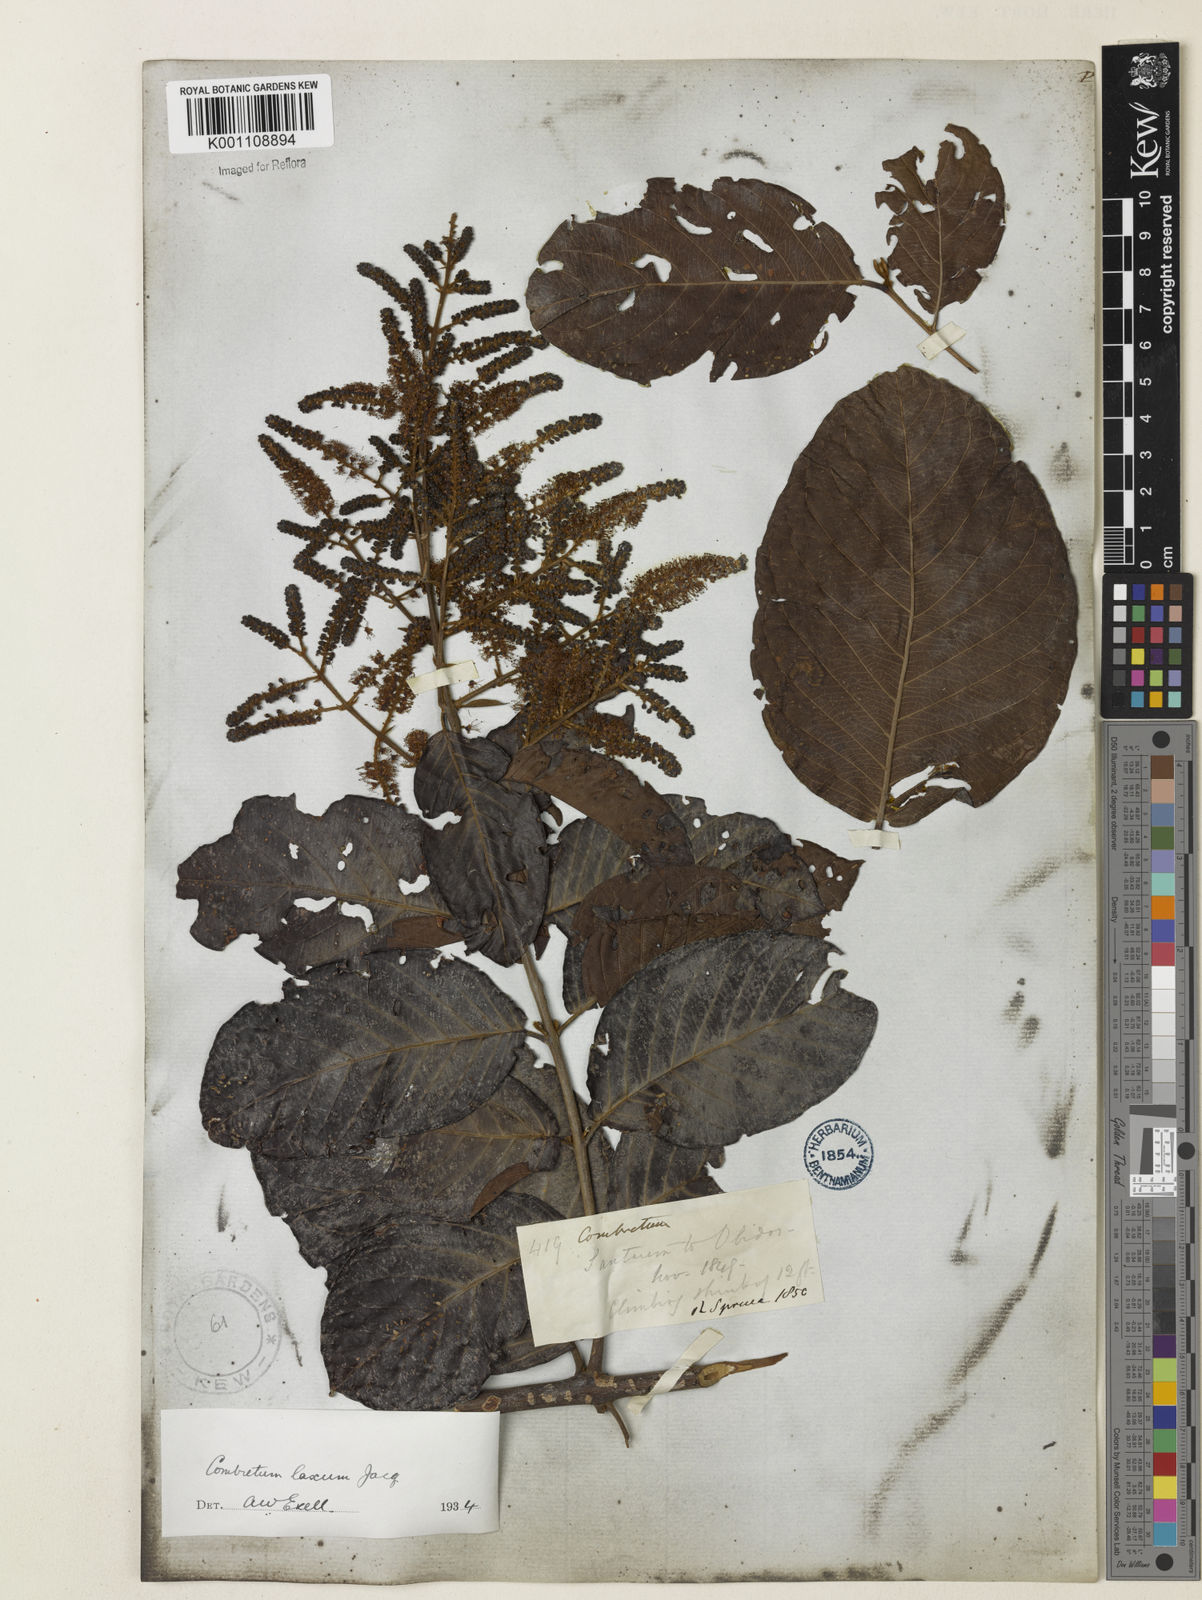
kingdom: Plantae
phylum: Tracheophyta
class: Magnoliopsida
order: Myrtales
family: Combretaceae
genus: Combretum
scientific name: Combretum laxum
